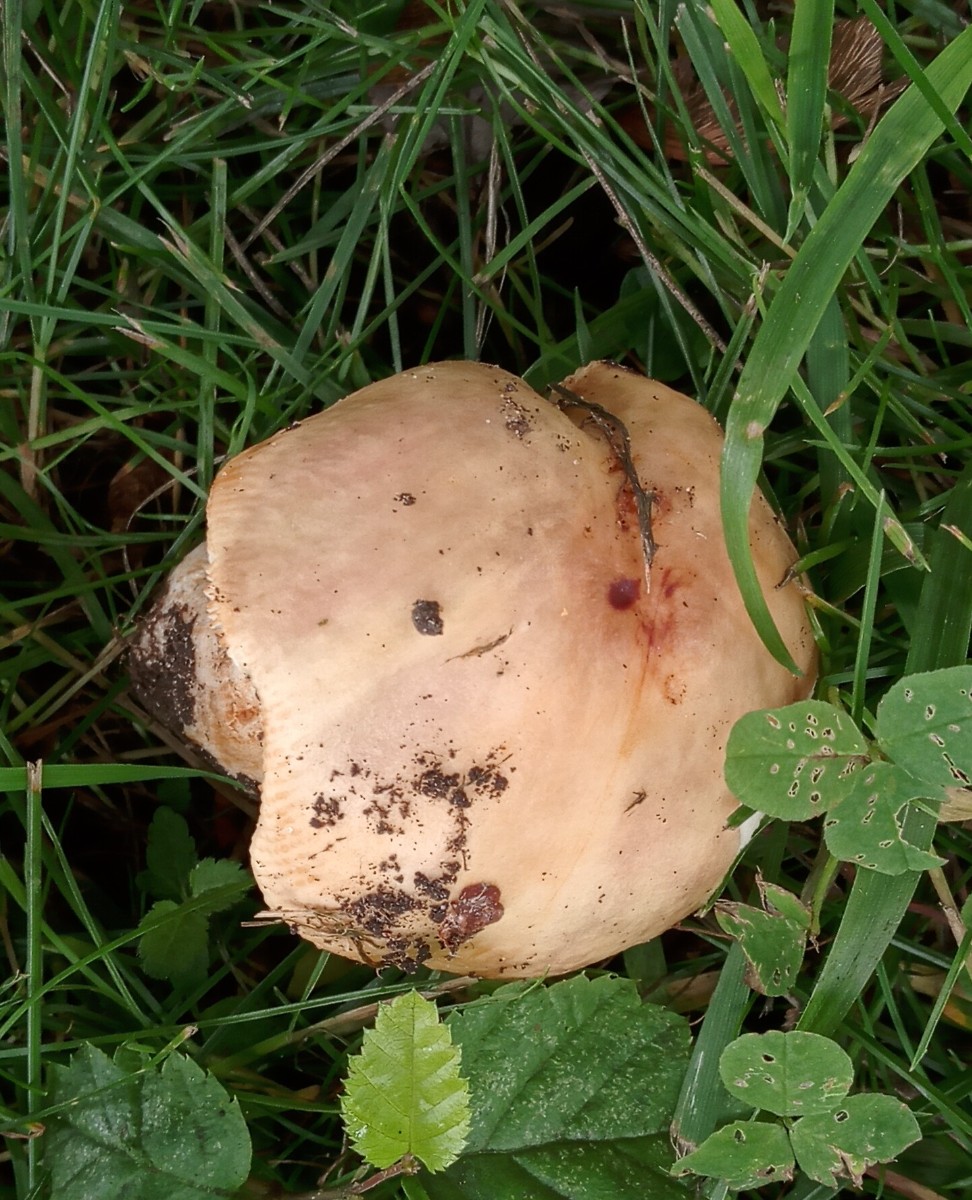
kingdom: Fungi
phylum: Basidiomycota
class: Agaricomycetes
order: Russulales
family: Russulaceae
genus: Russula
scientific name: Russula carpini
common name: avnbøg-skørhat
